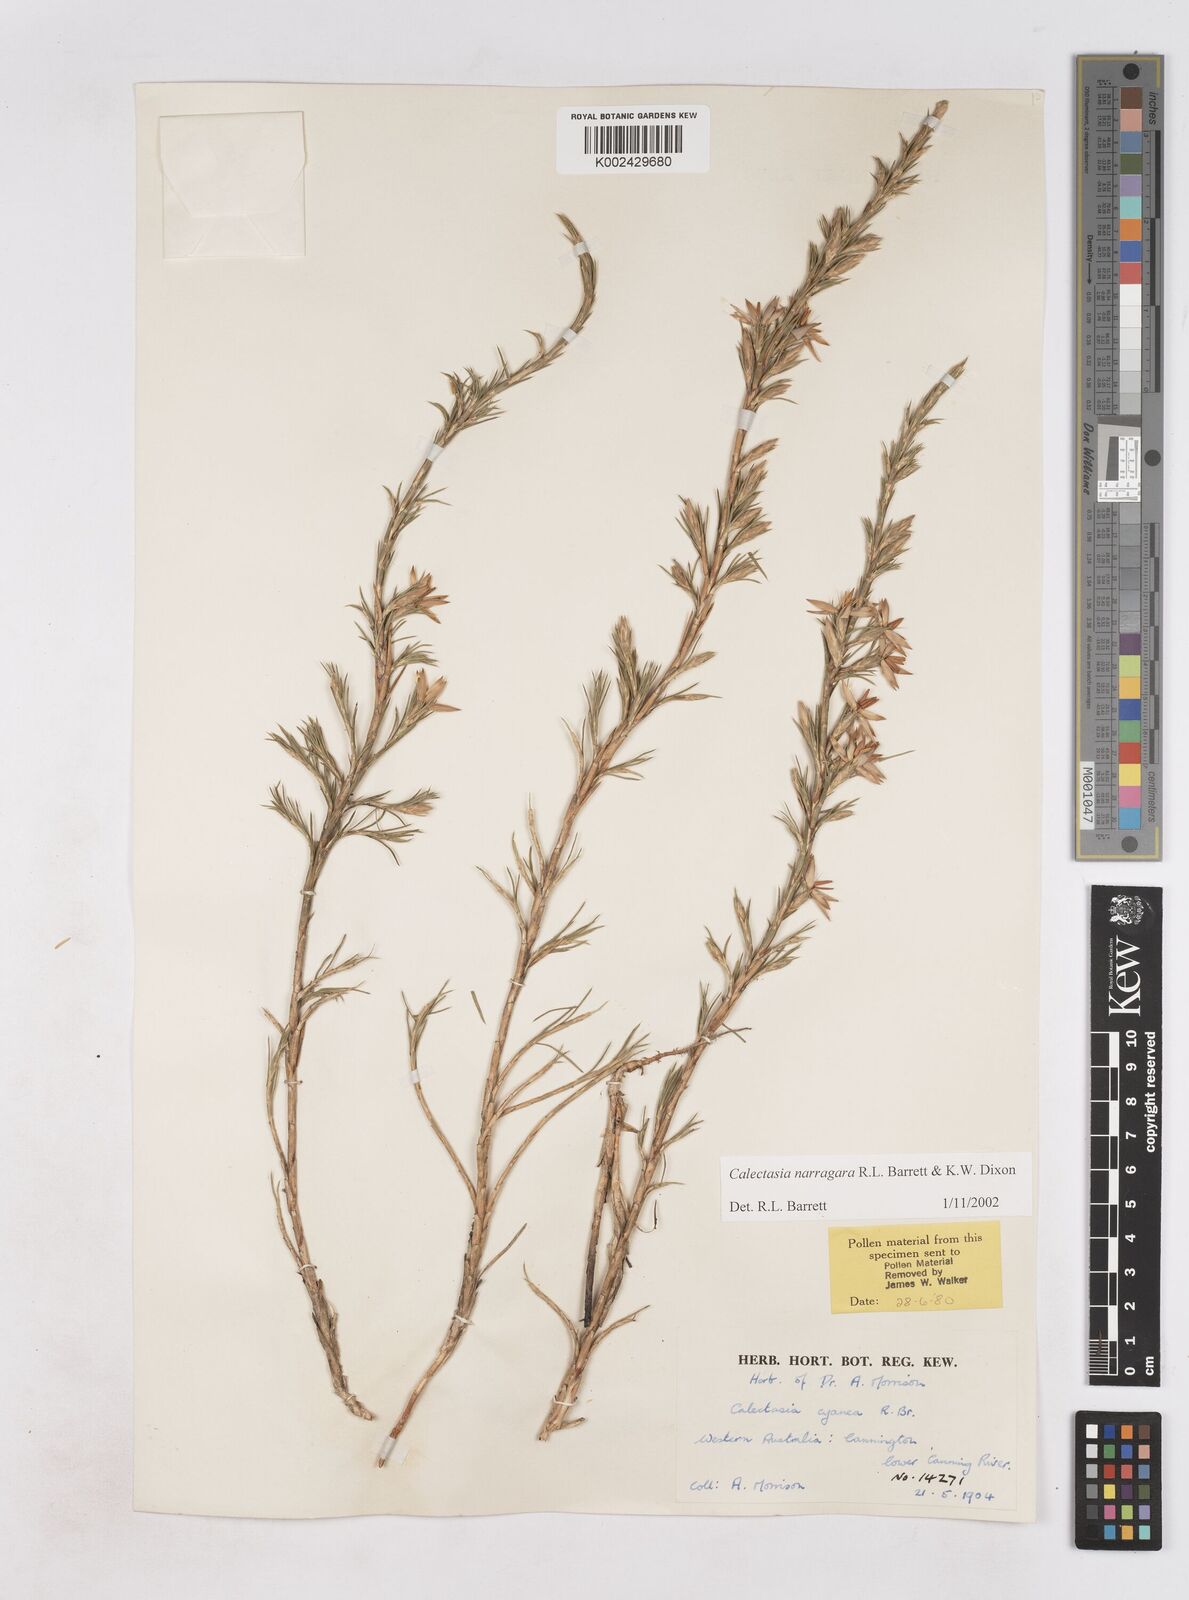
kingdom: Plantae
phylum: Tracheophyta
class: Liliopsida
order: Arecales
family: Dasypogonaceae
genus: Calectasia
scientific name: Calectasia narragara
